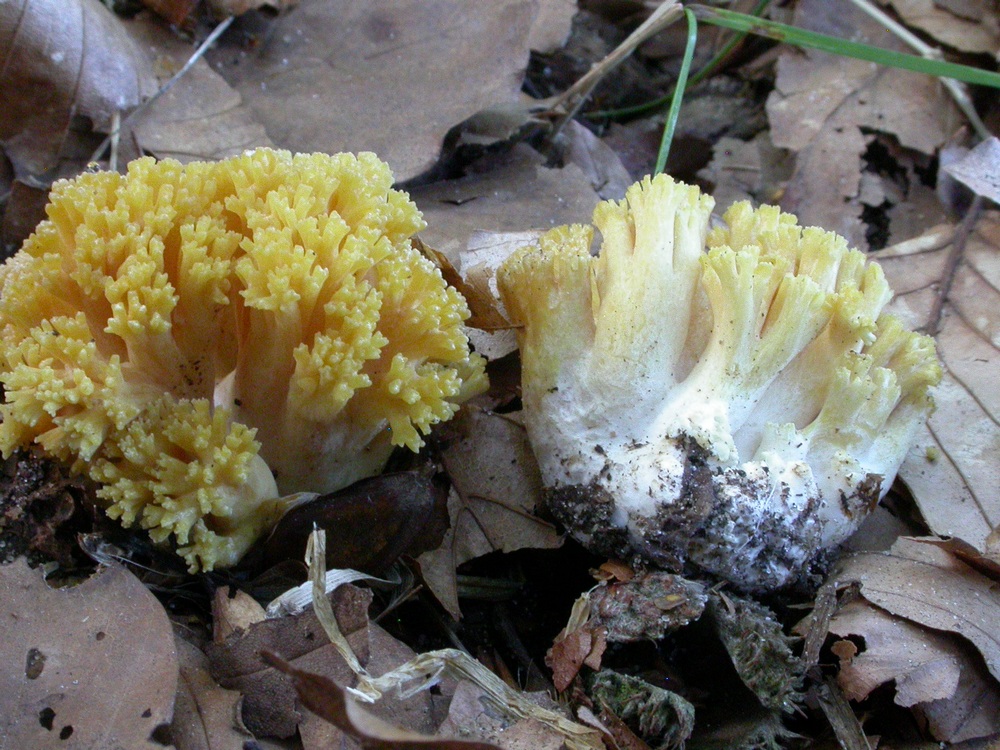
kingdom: Fungi
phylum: Basidiomycota
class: Agaricomycetes
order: Gomphales
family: Gomphaceae
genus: Ramaria
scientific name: Ramaria
